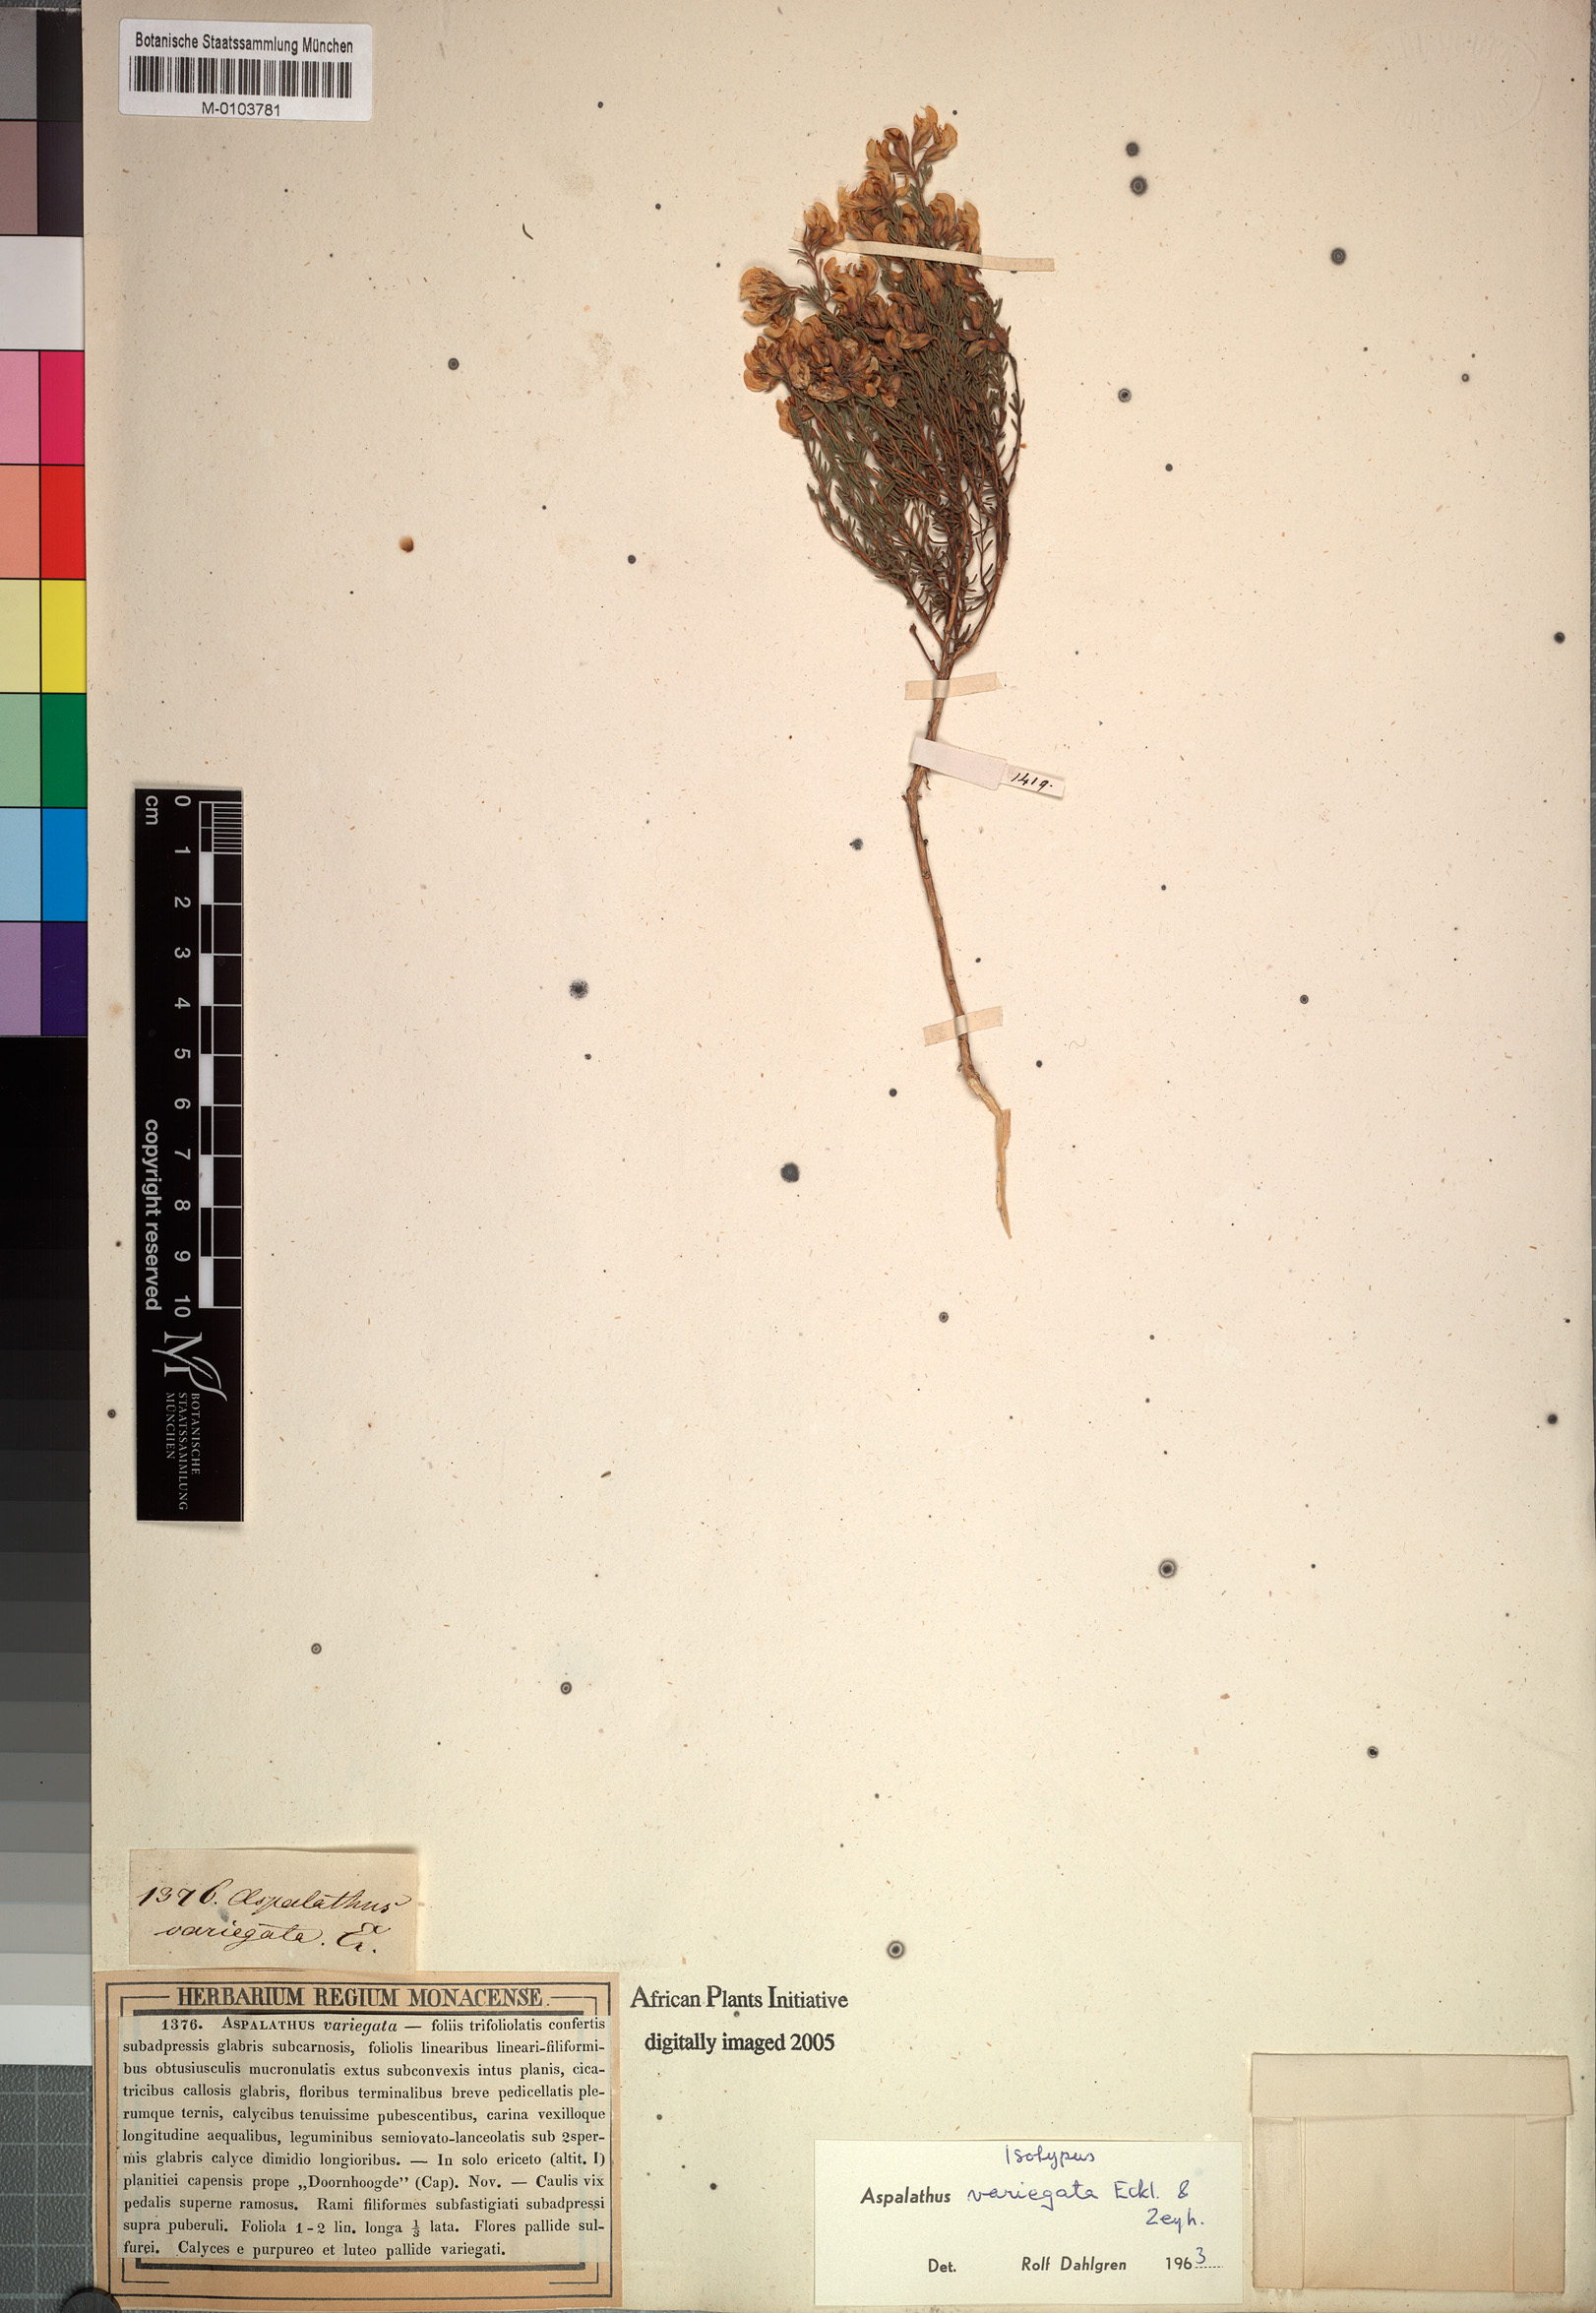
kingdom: Plantae
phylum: Tracheophyta
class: Magnoliopsida
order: Fabales
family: Fabaceae
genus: Aspalathus
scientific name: Aspalathus variegata
